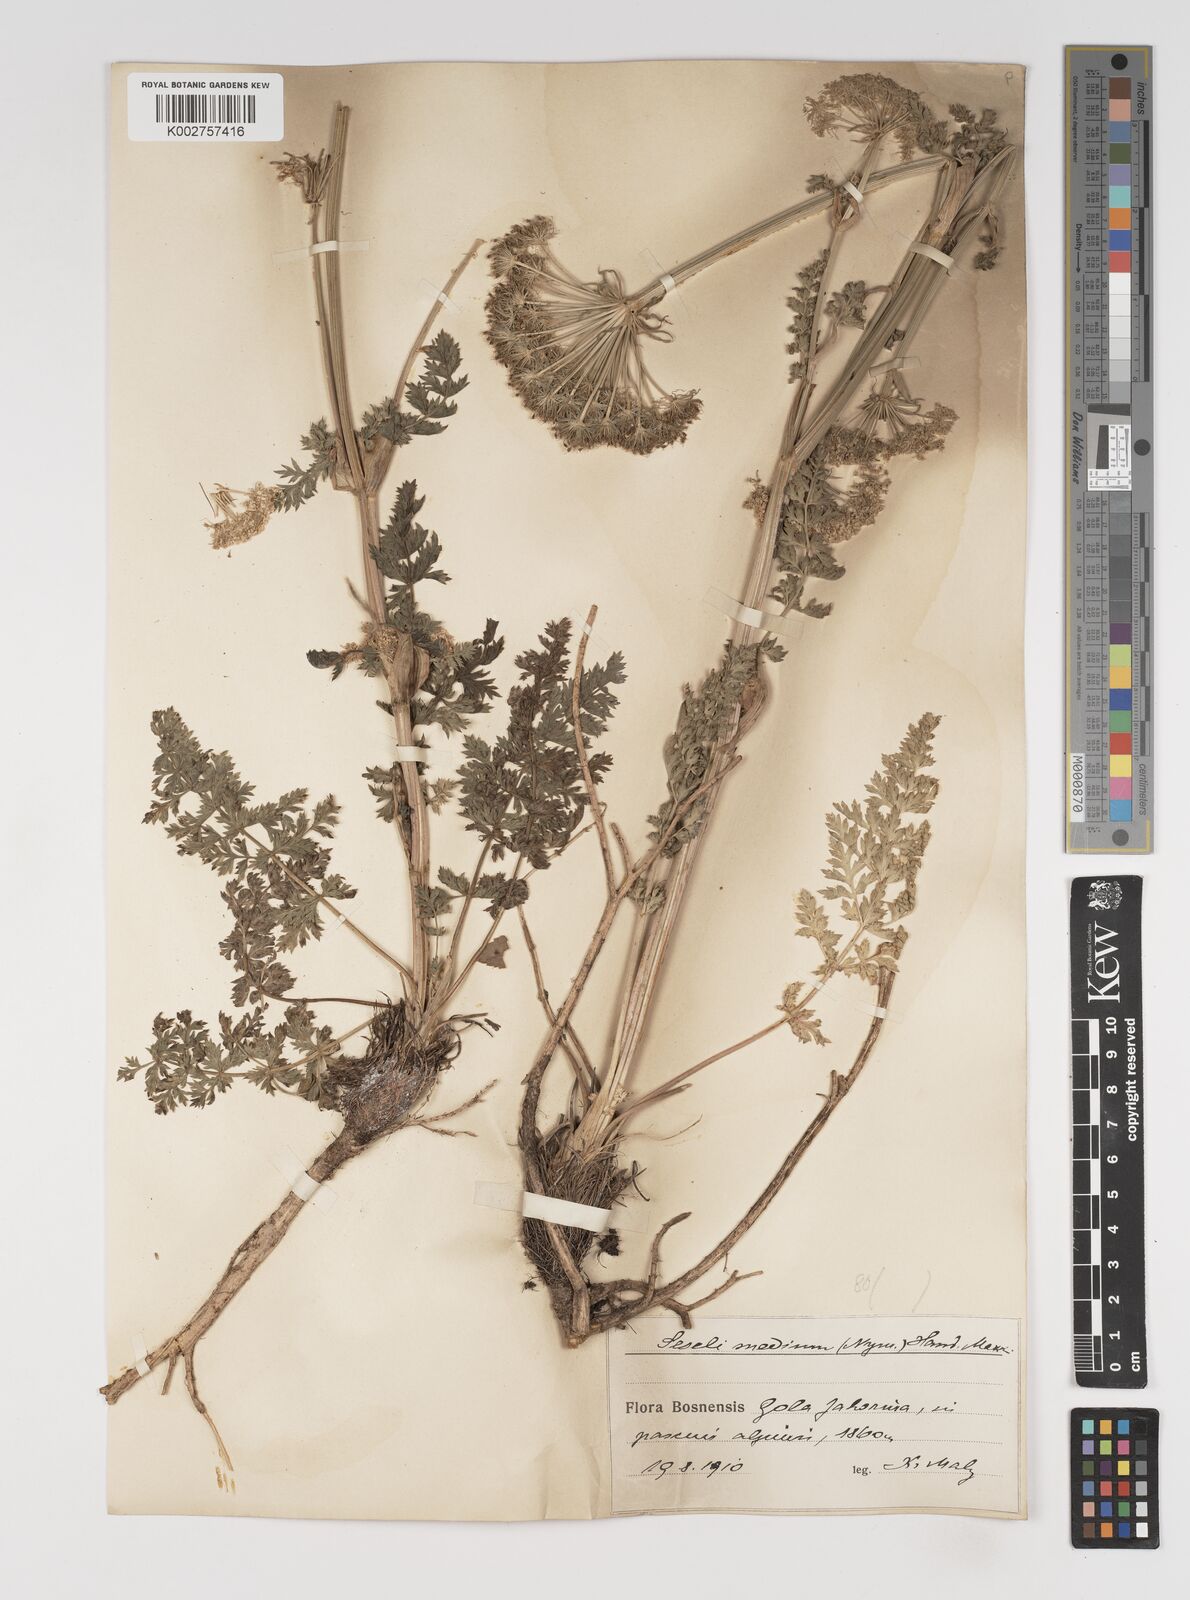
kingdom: Plantae
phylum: Tracheophyta
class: Magnoliopsida
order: Apiales
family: Apiaceae
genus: Seseli
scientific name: Seseli malyi
